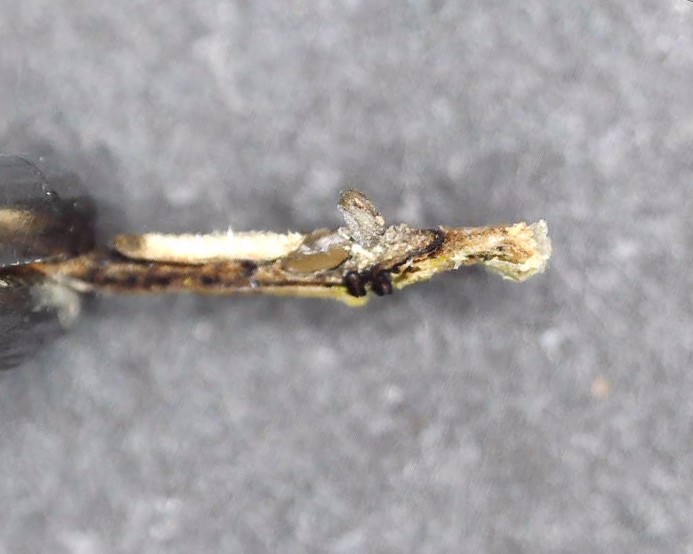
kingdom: Fungi
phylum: Ascomycota
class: Sordariomycetes
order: Diaporthales
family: Diaporthaceae
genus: Diaporthe
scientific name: Diaporthe inaequalis
